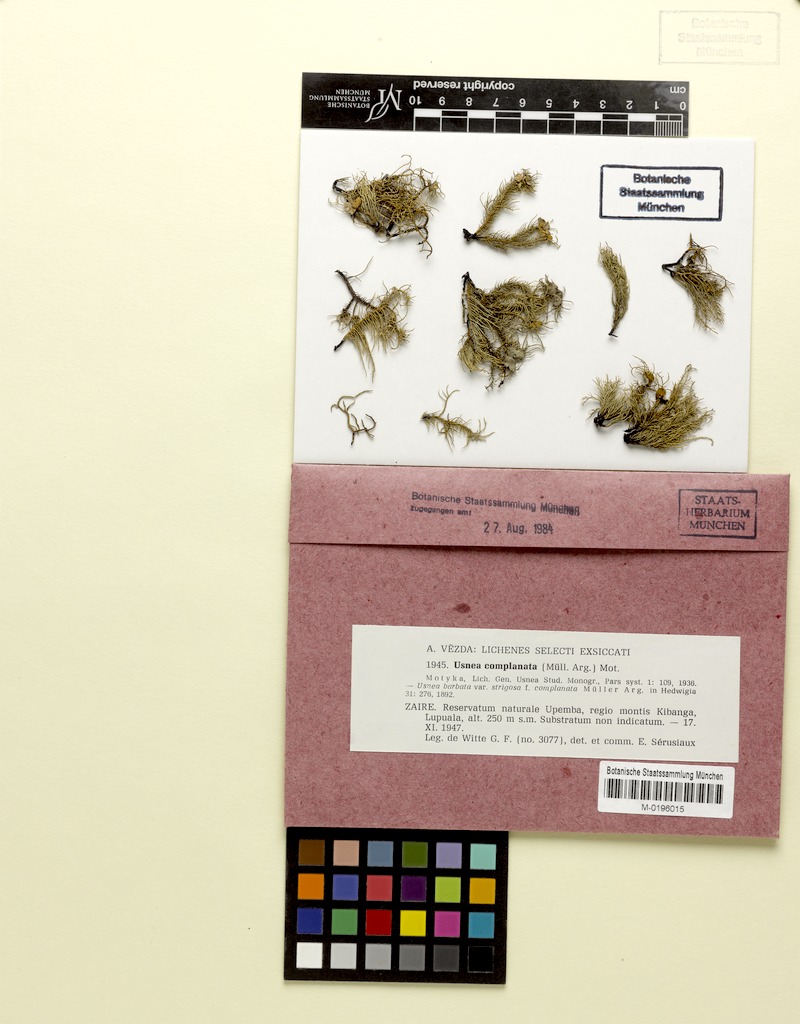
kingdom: Fungi
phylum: Ascomycota
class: Lecanoromycetes
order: Lecanorales
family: Parmeliaceae
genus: Usnea
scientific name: Usnea complanata
